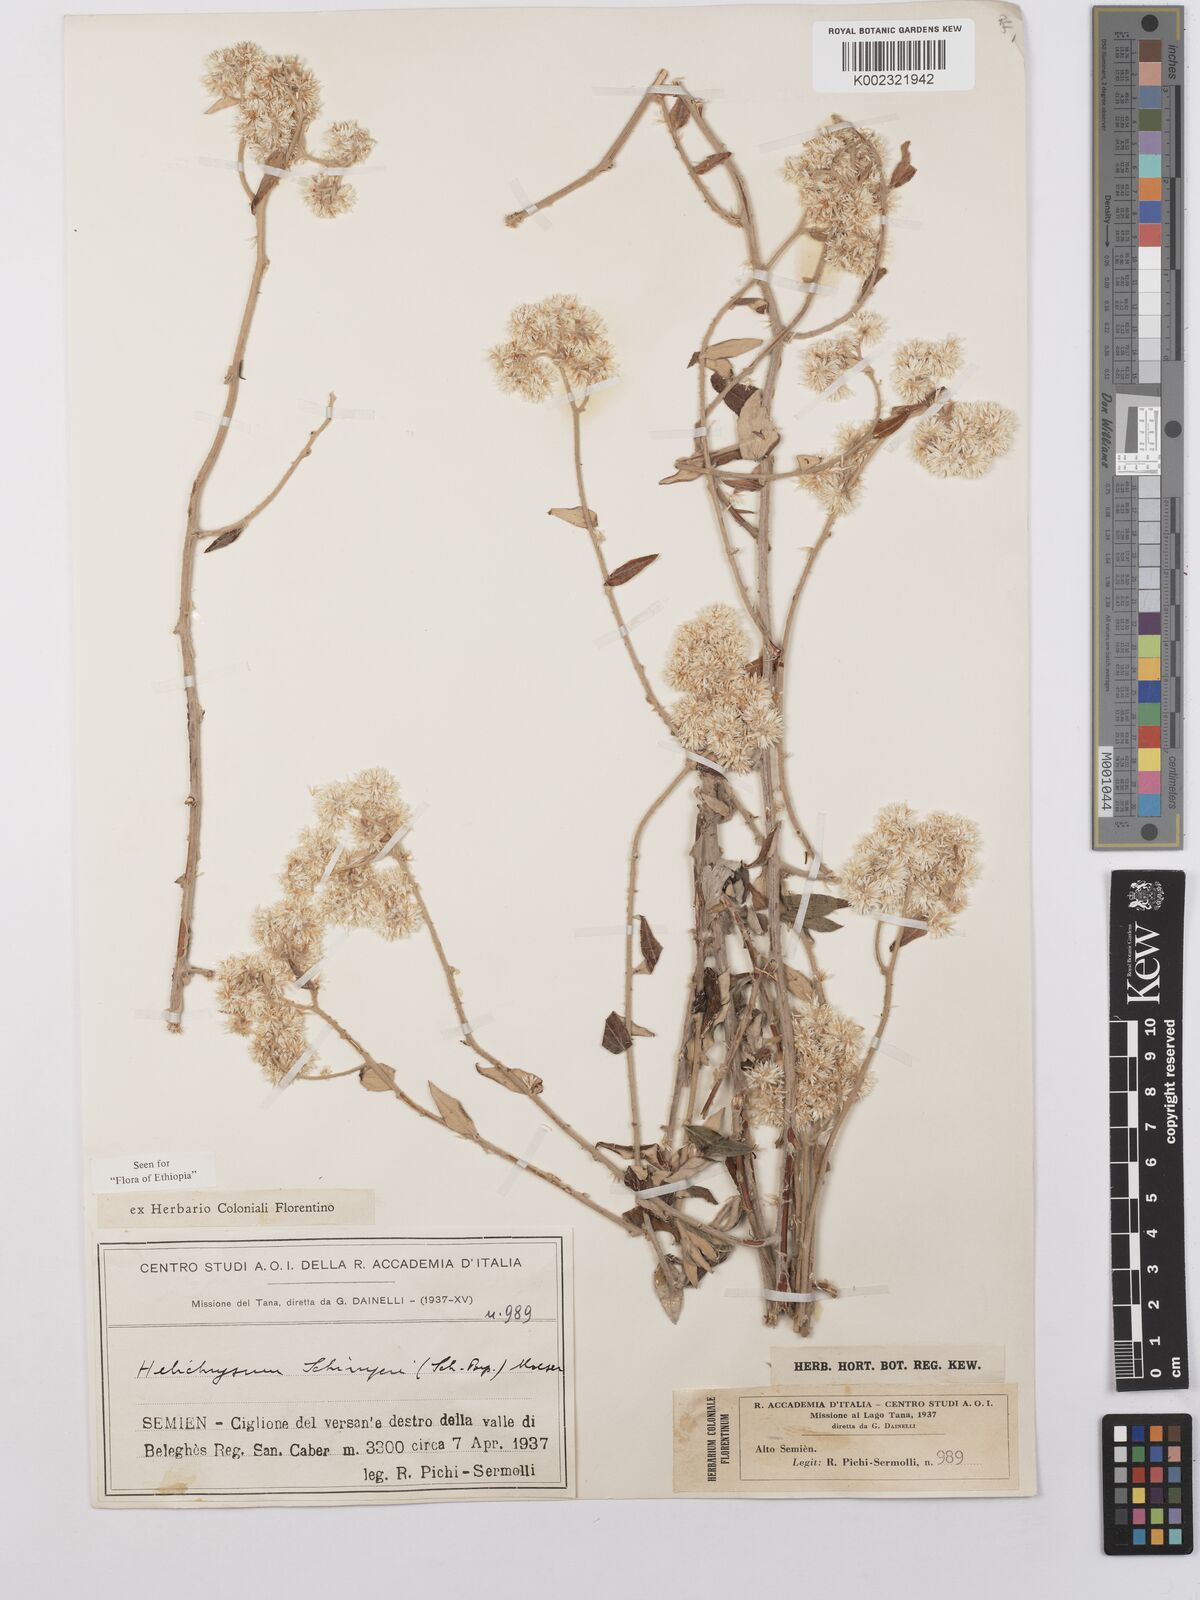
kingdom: Plantae
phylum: Tracheophyta
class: Magnoliopsida
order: Asterales
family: Asteraceae
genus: Helichrysum
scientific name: Helichrysum schimperi
